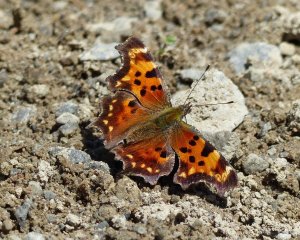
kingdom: Animalia
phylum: Arthropoda
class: Insecta
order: Lepidoptera
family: Nymphalidae
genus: Polygonia
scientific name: Polygonia faunus
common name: Green Comma
